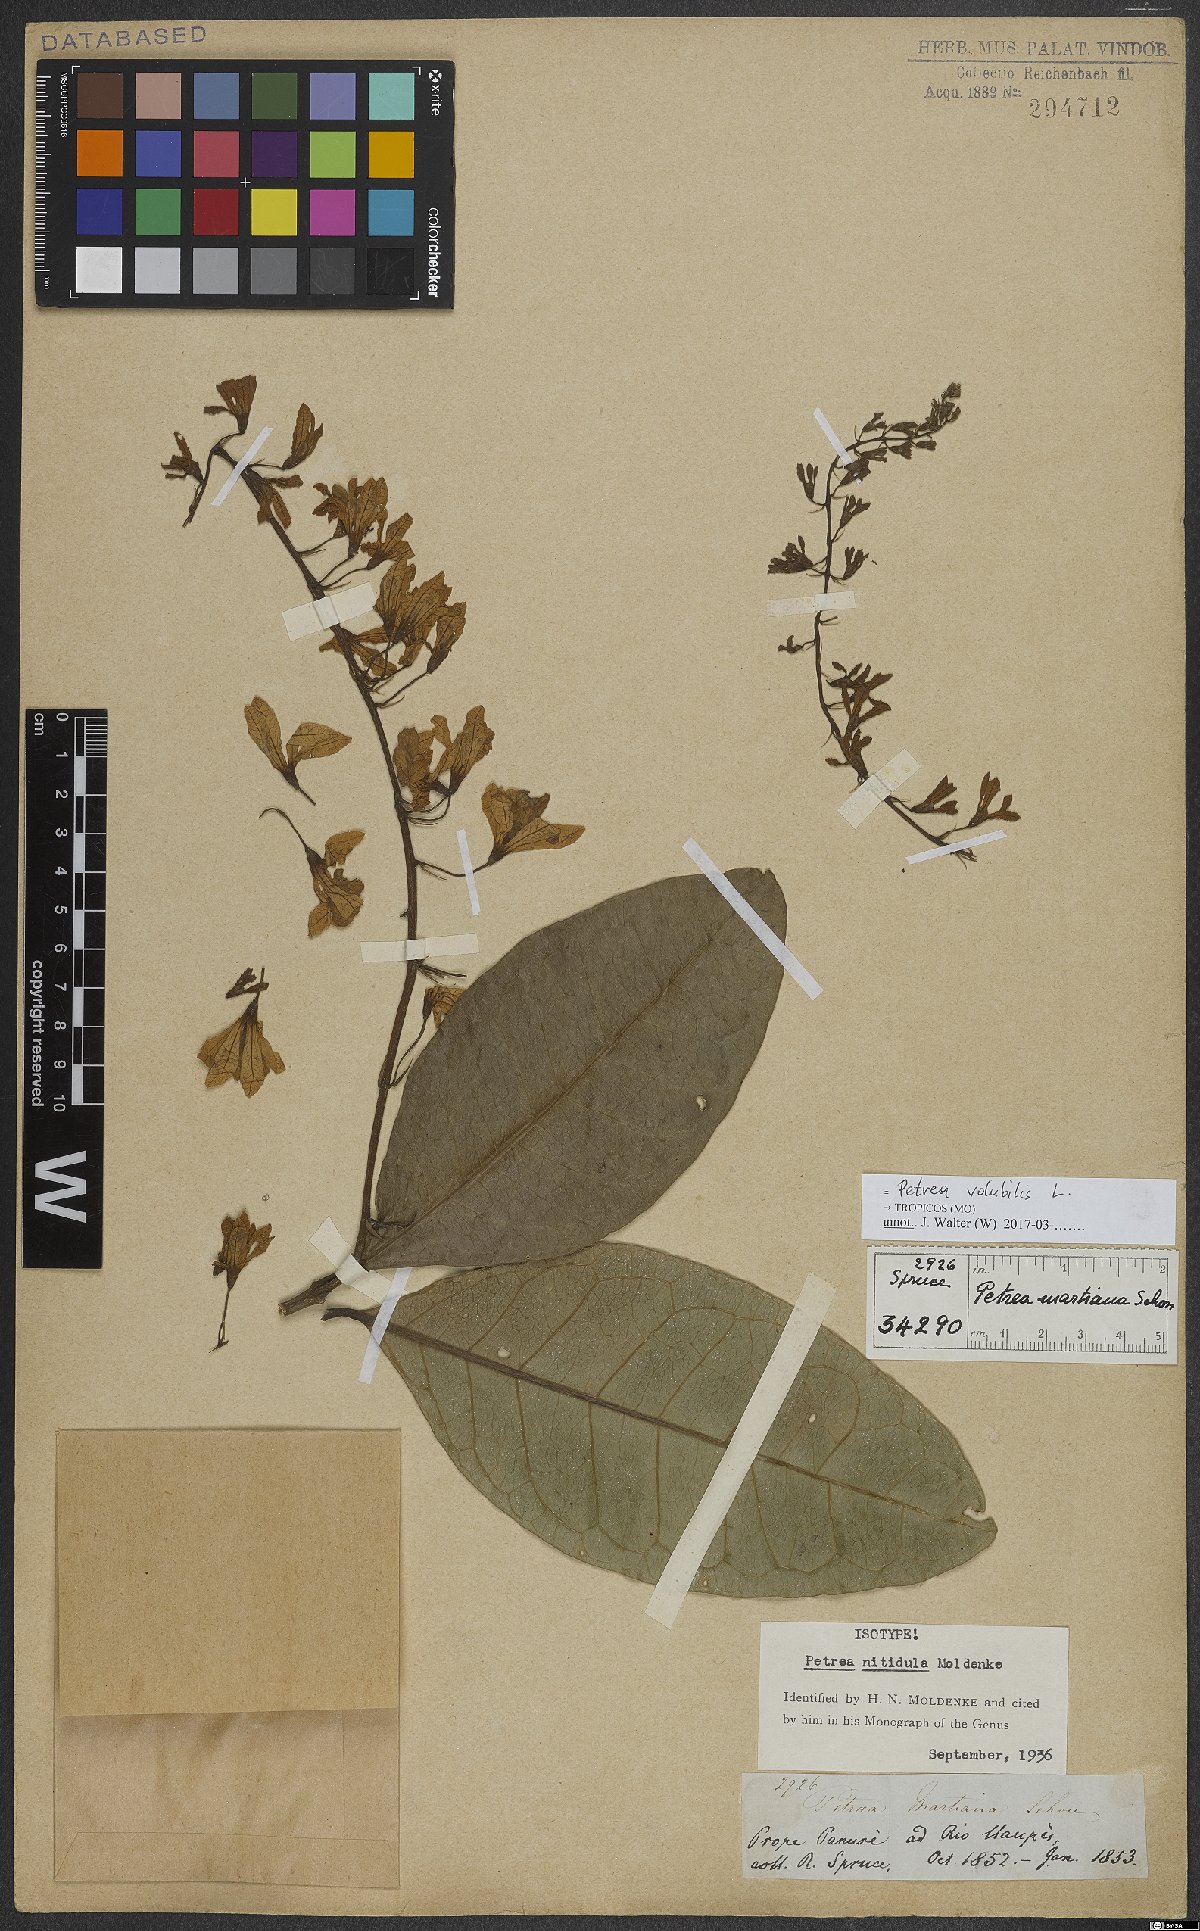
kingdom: Plantae
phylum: Tracheophyta
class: Magnoliopsida
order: Lamiales
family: Verbenaceae
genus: Petrea
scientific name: Petrea volubilis
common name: Queen's-wreath
